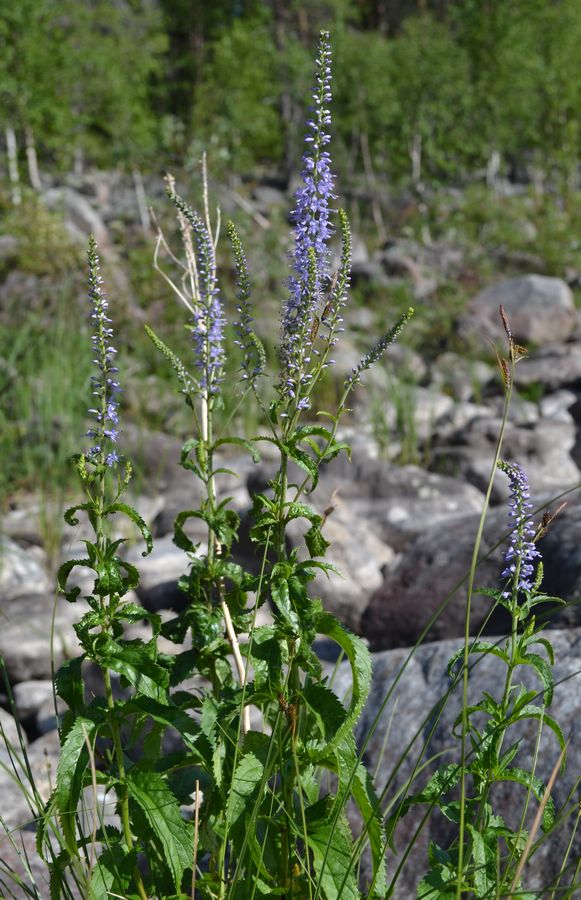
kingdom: Plantae
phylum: Tracheophyta
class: Magnoliopsida
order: Lamiales
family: Plantaginaceae
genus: Veronica
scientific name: Veronica longifolia
